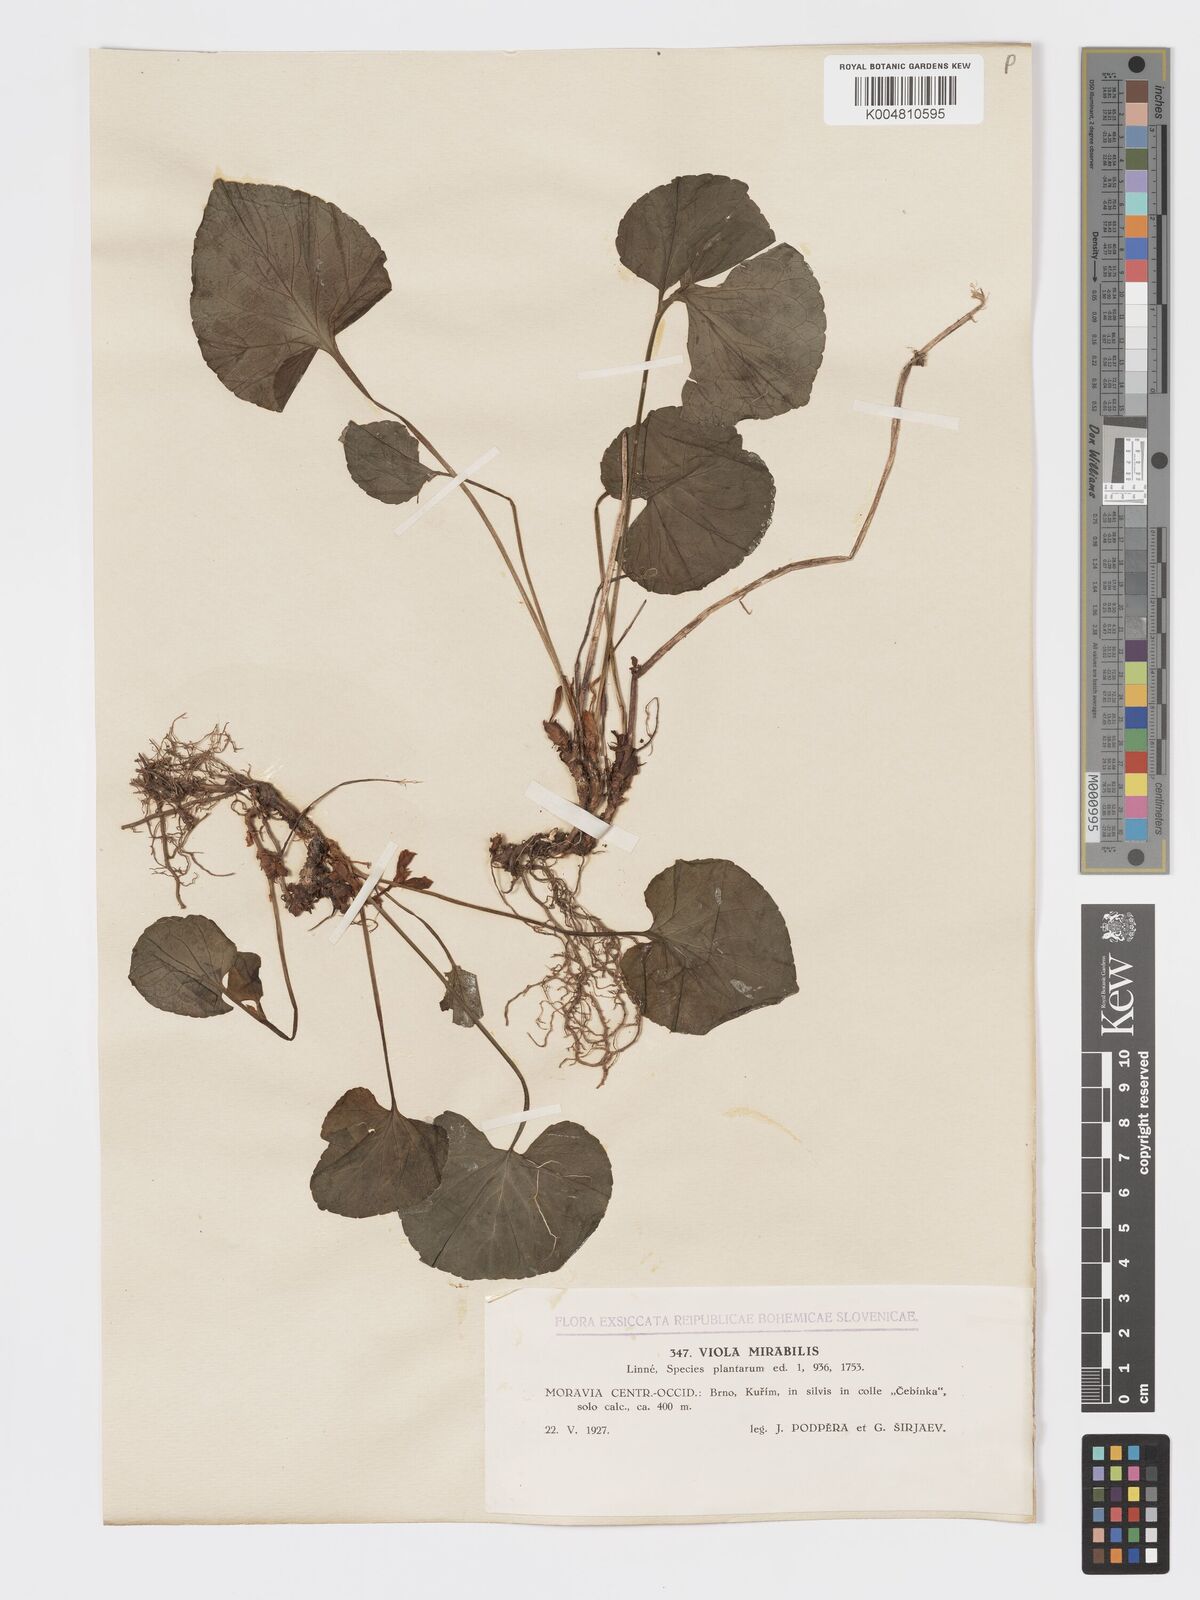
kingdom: Plantae
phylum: Tracheophyta
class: Magnoliopsida
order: Malpighiales
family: Violaceae
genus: Viola
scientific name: Viola mirabilis
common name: Wonder violet
